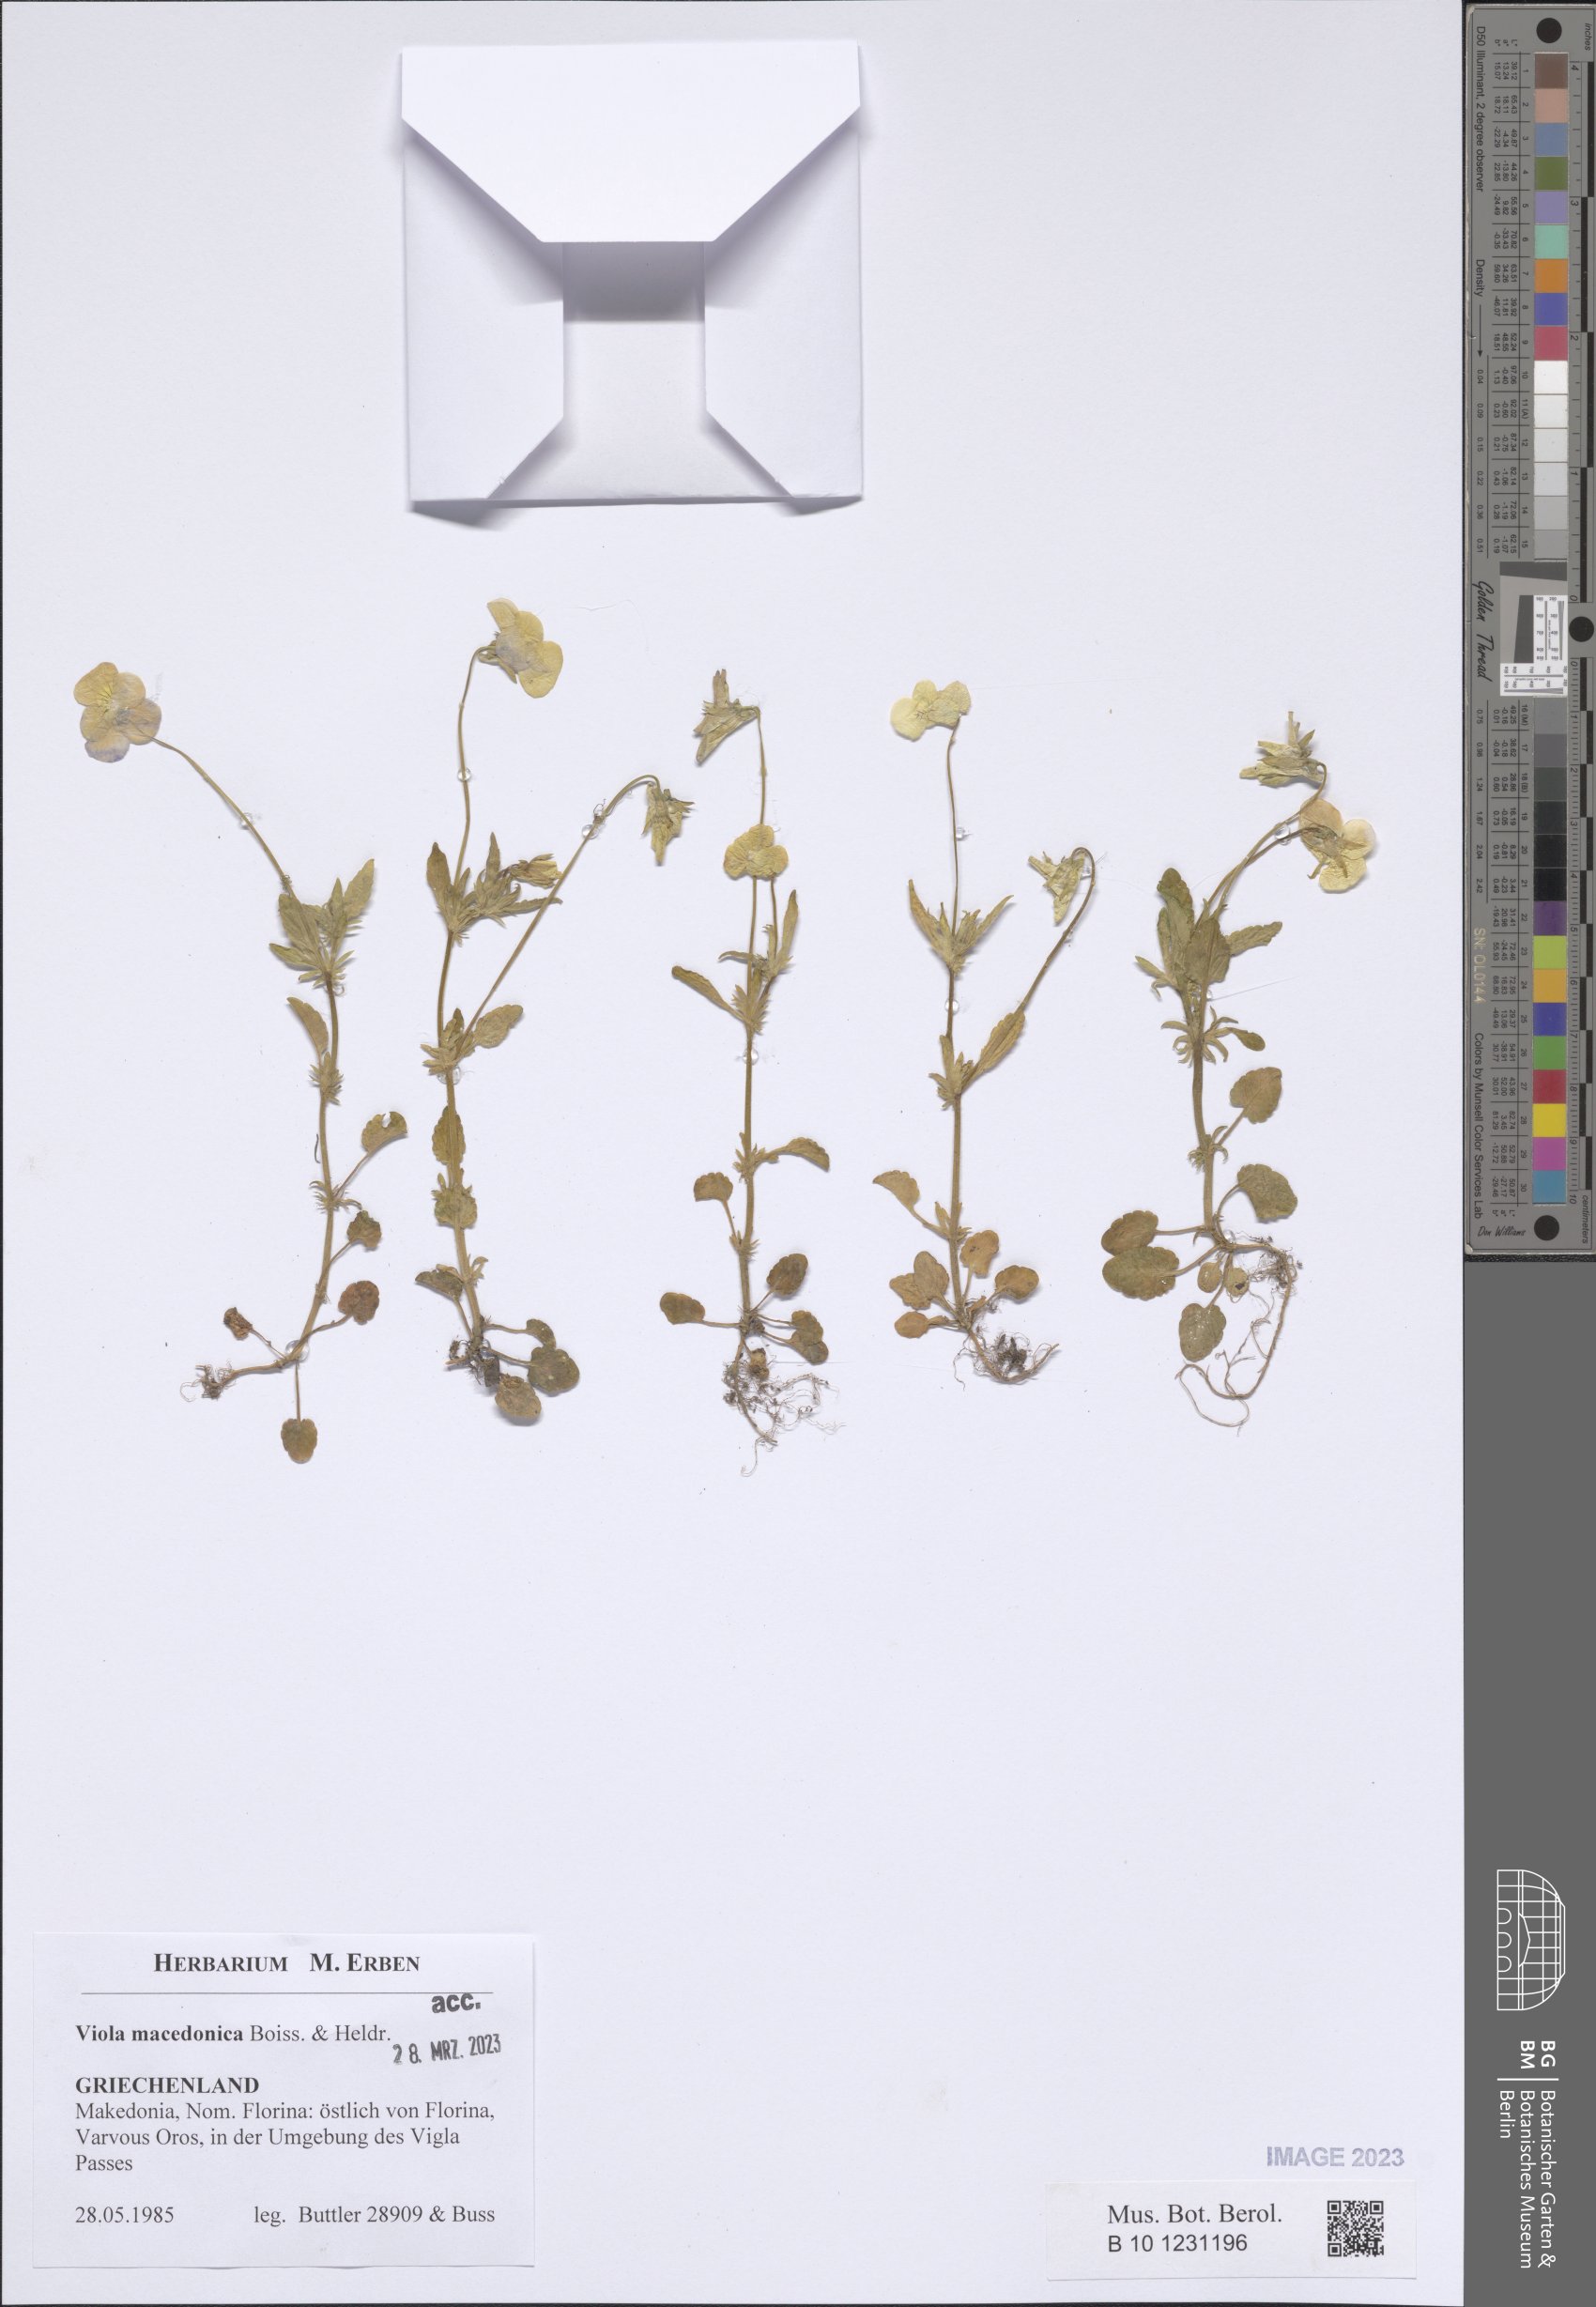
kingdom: Plantae
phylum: Tracheophyta
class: Magnoliopsida
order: Malpighiales
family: Violaceae
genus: Viola
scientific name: Viola tricolor
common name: Pansy
